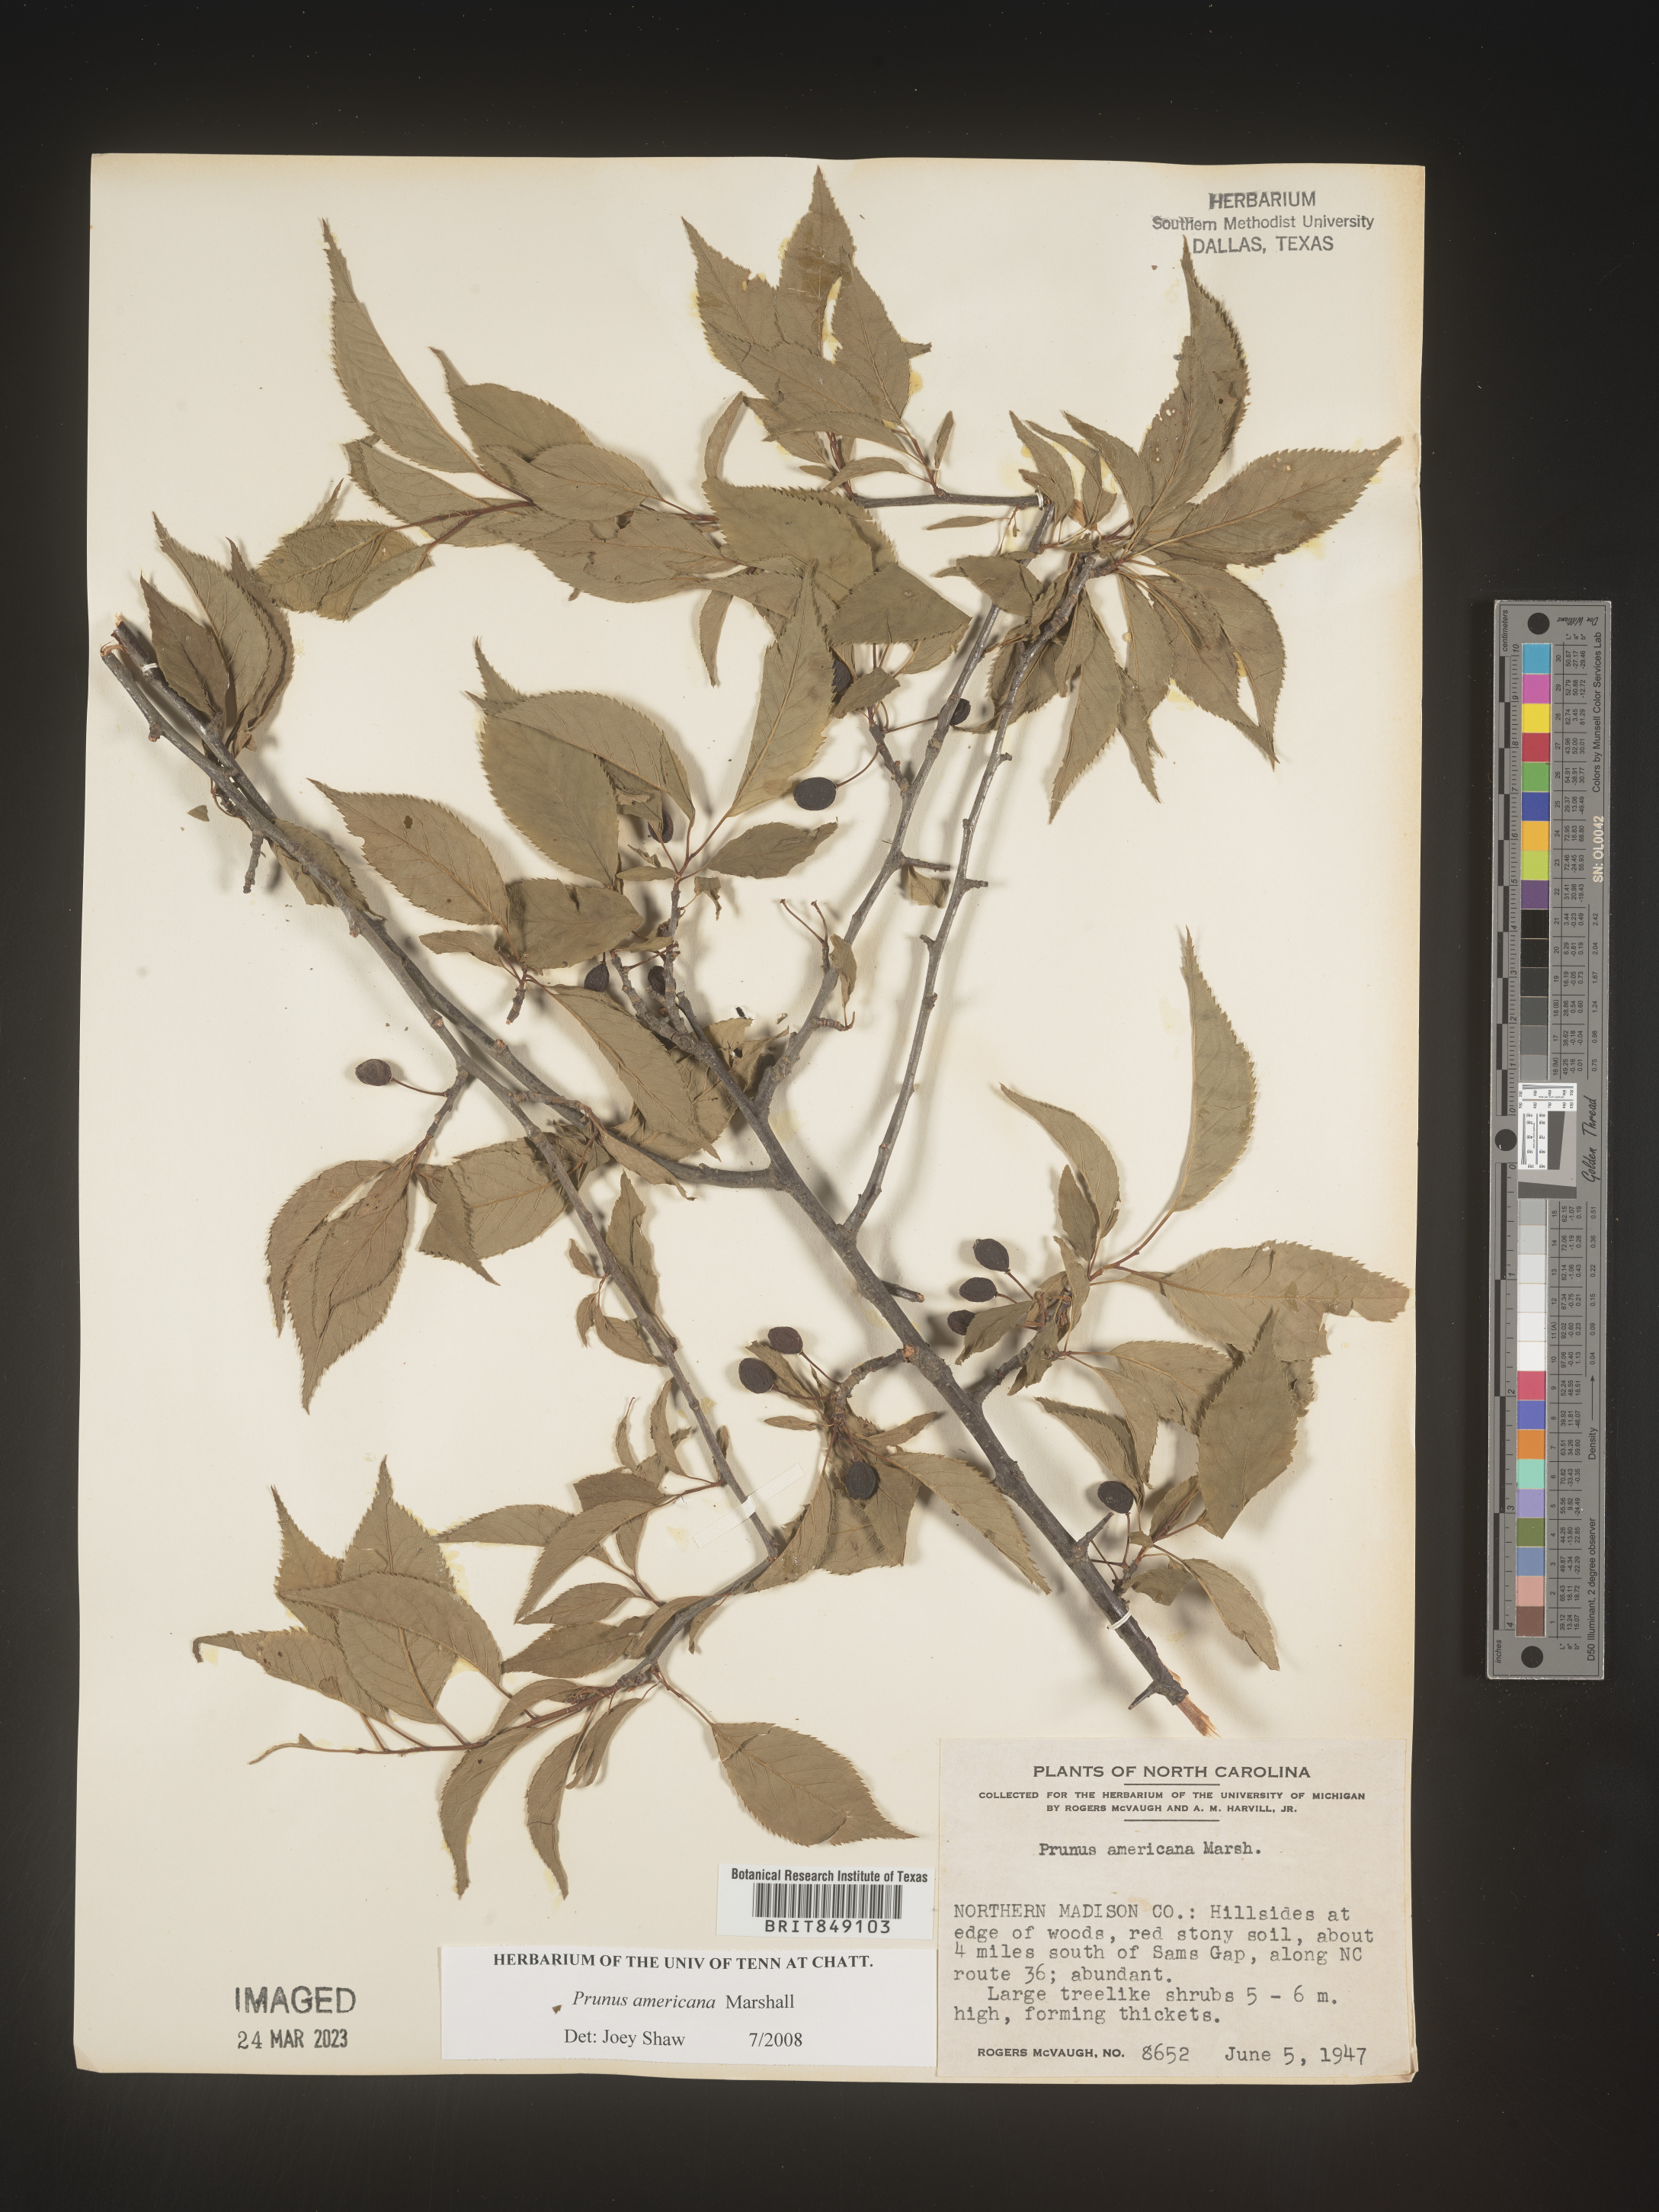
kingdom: Plantae
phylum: Tracheophyta
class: Magnoliopsida
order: Rosales
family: Rosaceae
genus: Prunus
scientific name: Prunus americana
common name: American plum
